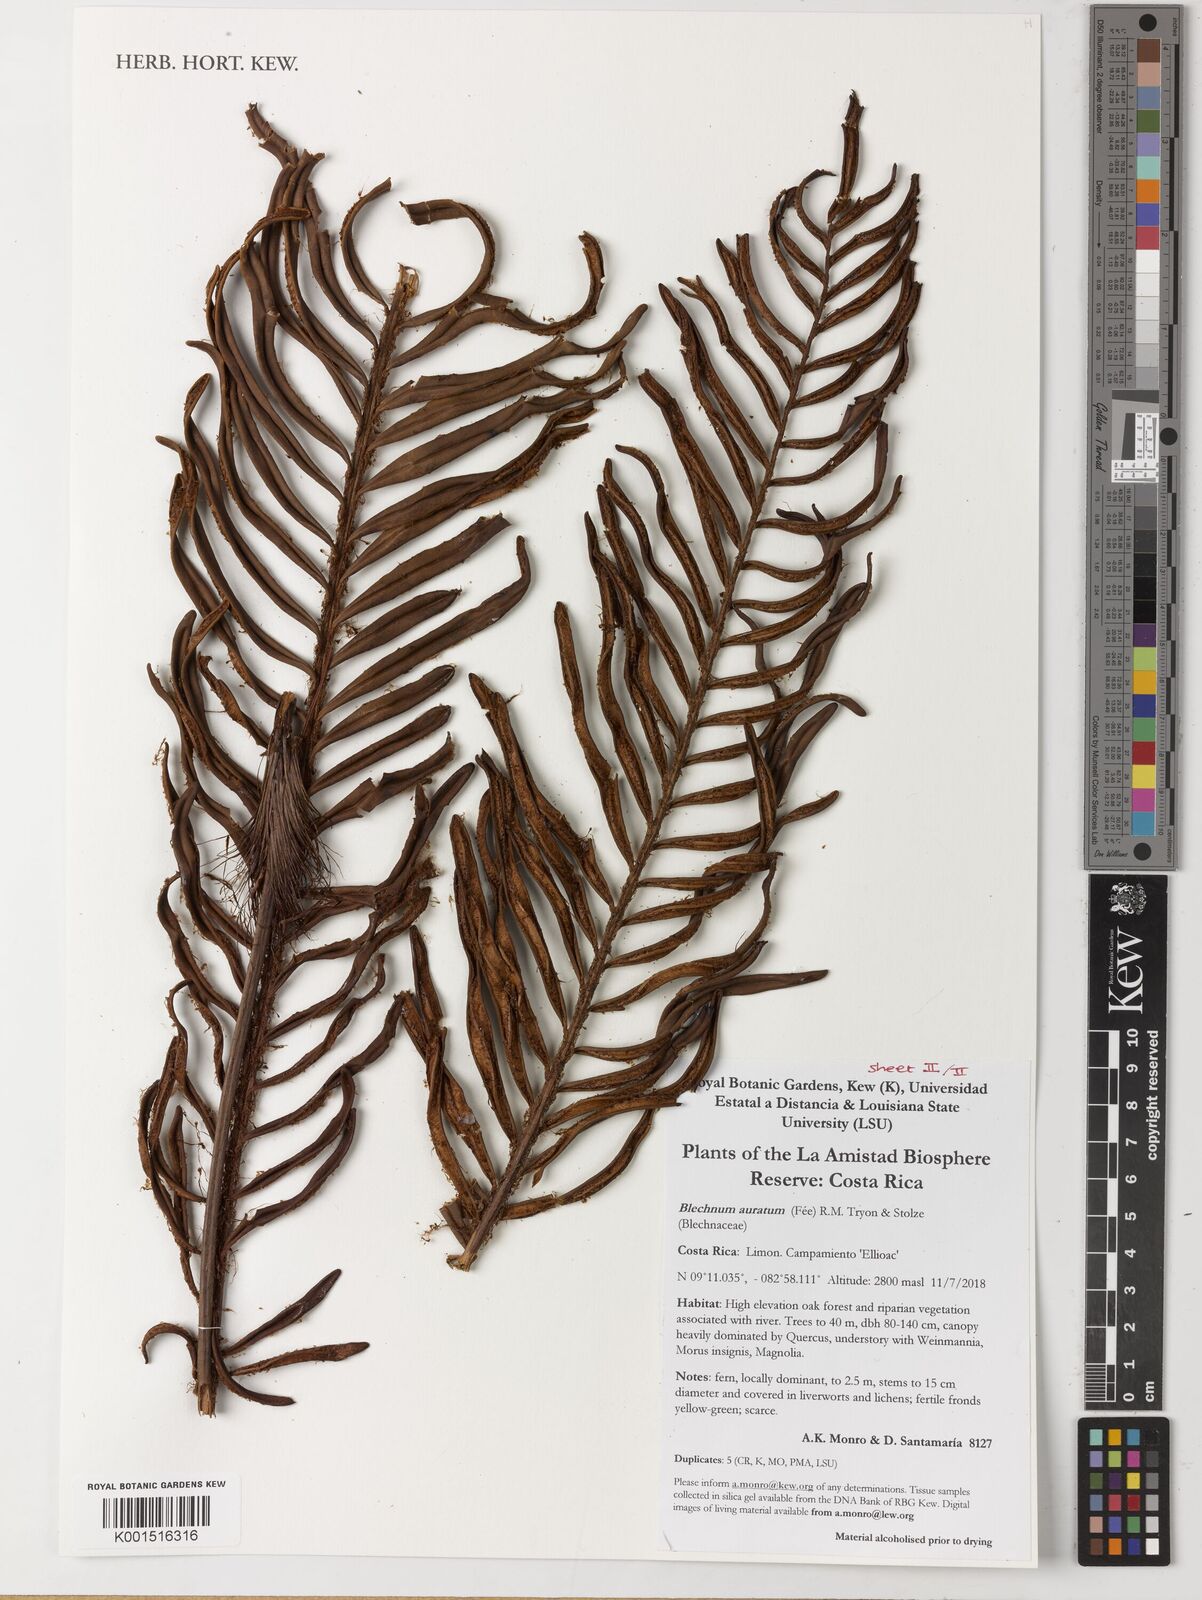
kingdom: Plantae
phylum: Tracheophyta
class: Polypodiopsida
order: Polypodiales
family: Blechnaceae
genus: Lomariocycas
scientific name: Lomariocycas aurata
